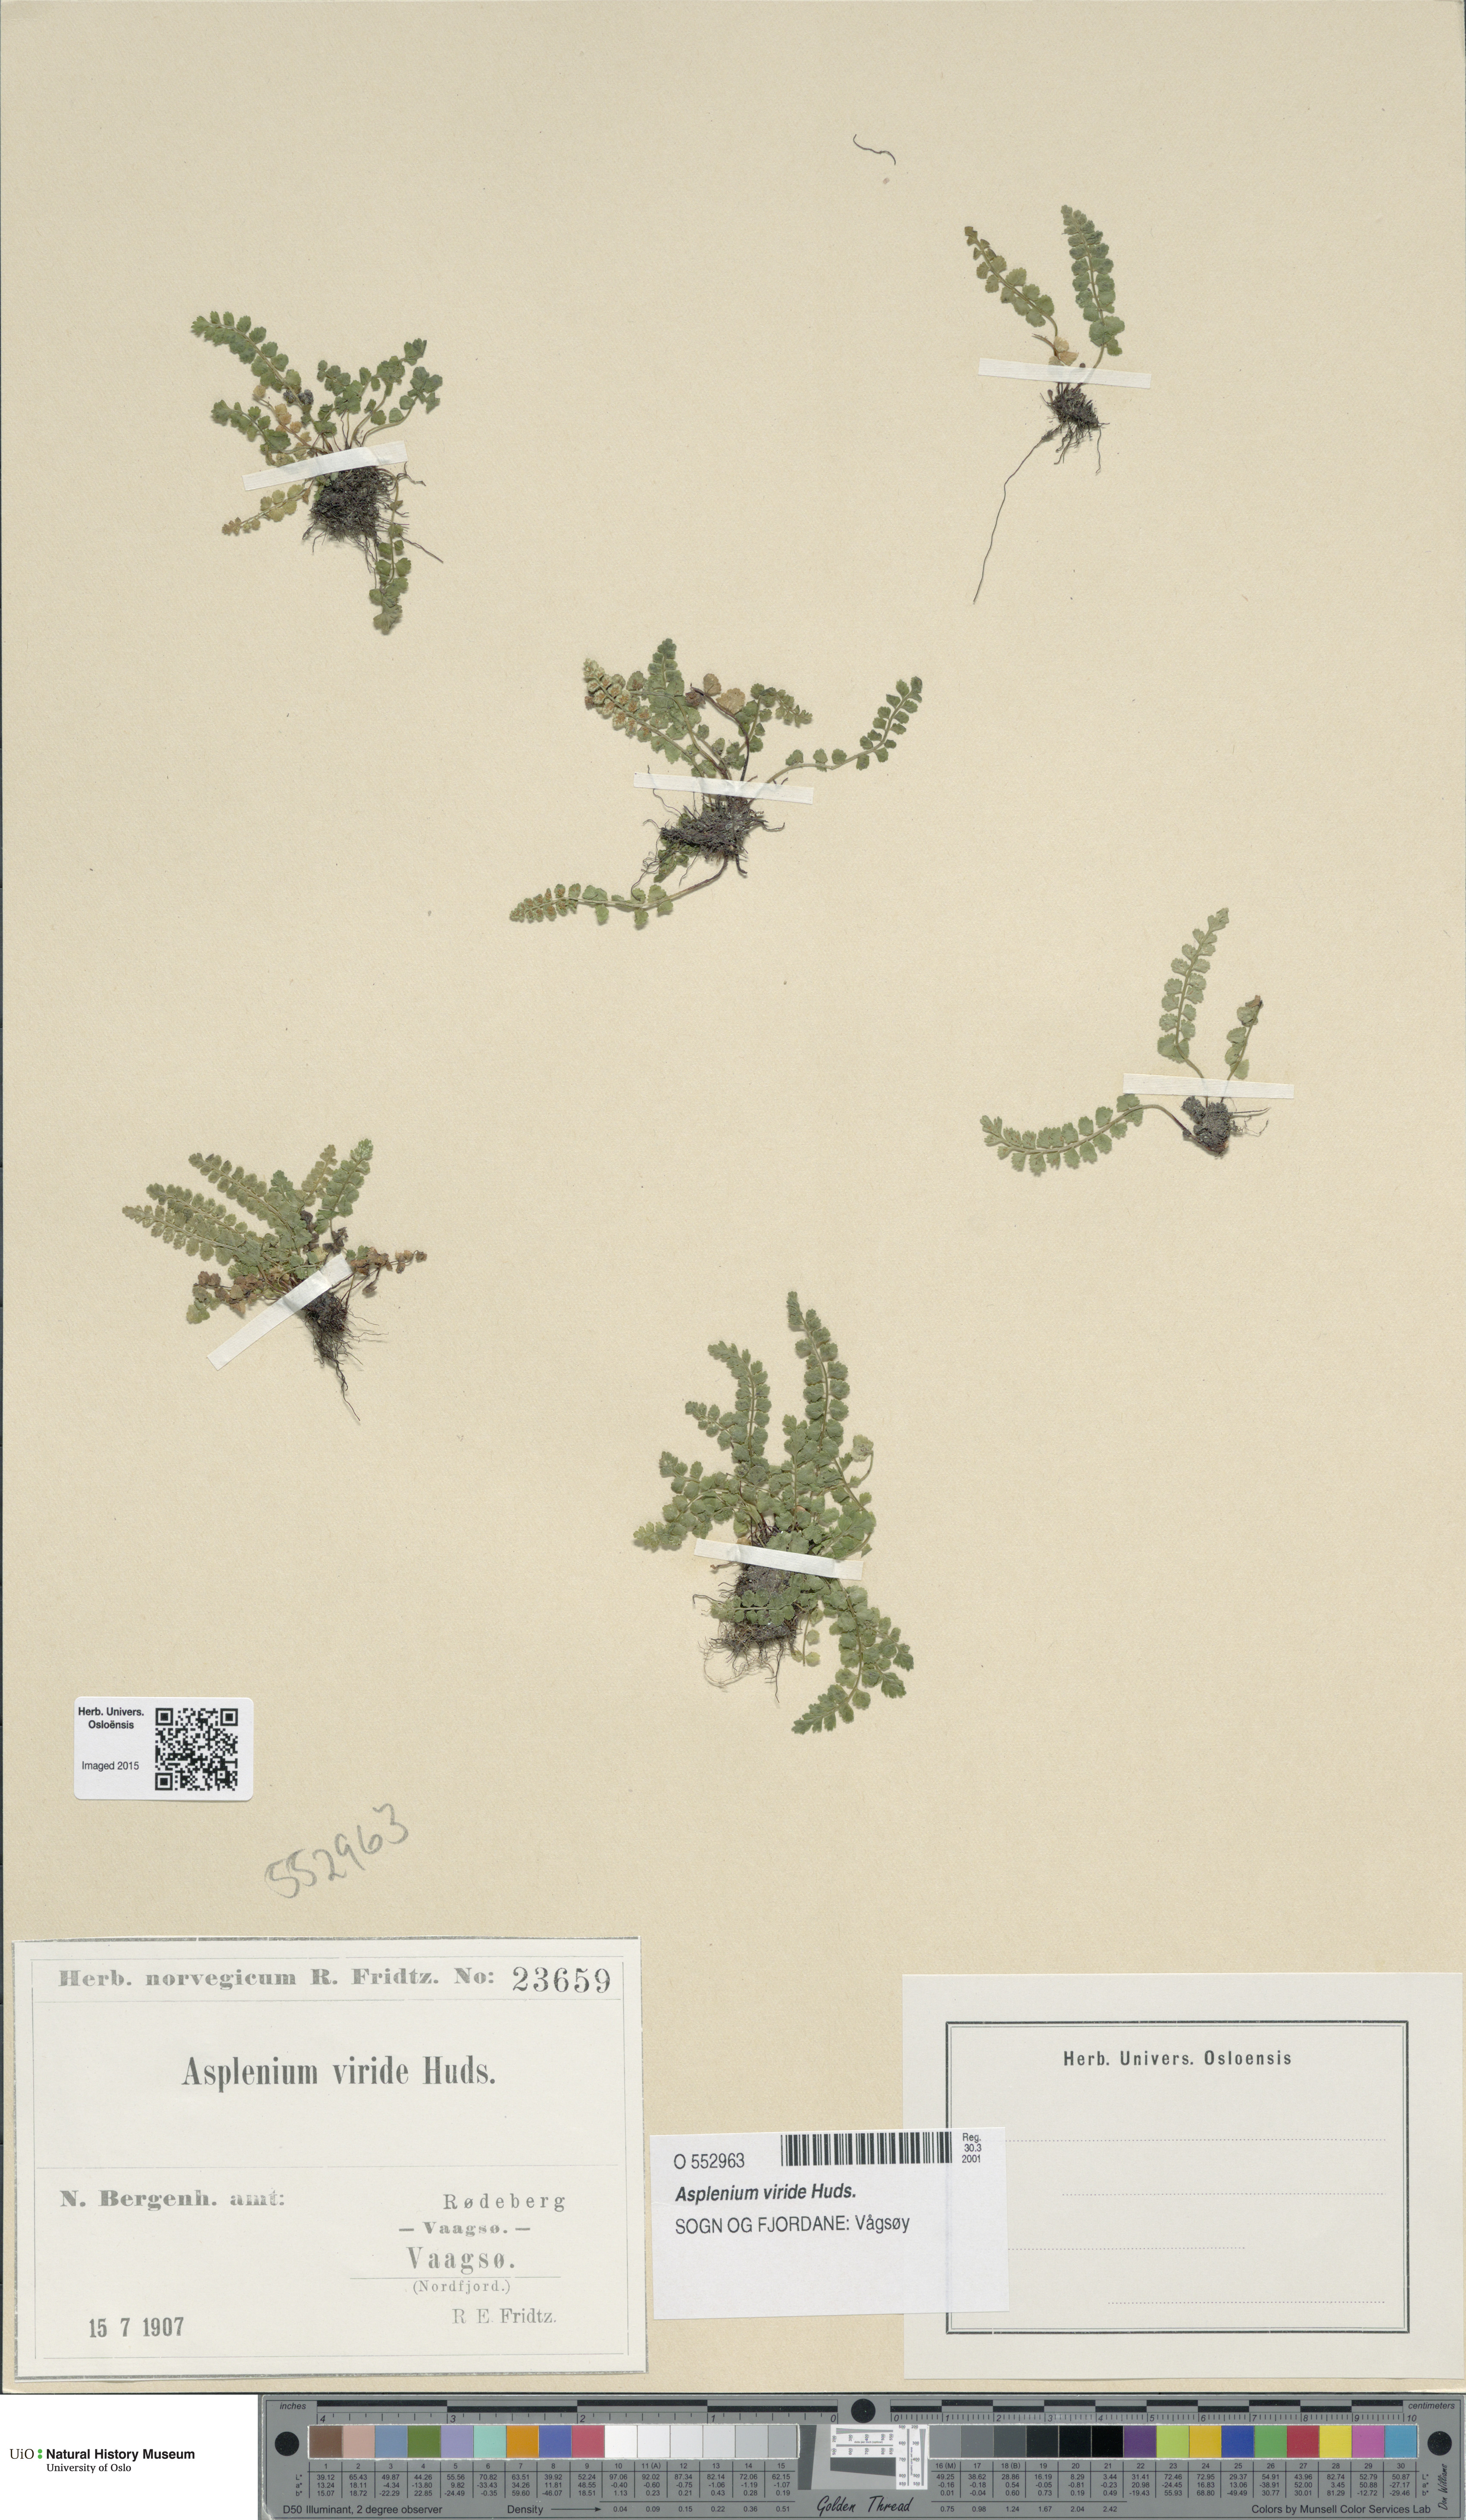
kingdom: Plantae
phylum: Tracheophyta
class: Polypodiopsida
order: Polypodiales
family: Aspleniaceae
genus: Asplenium
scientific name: Asplenium viride
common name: Green spleenwort
